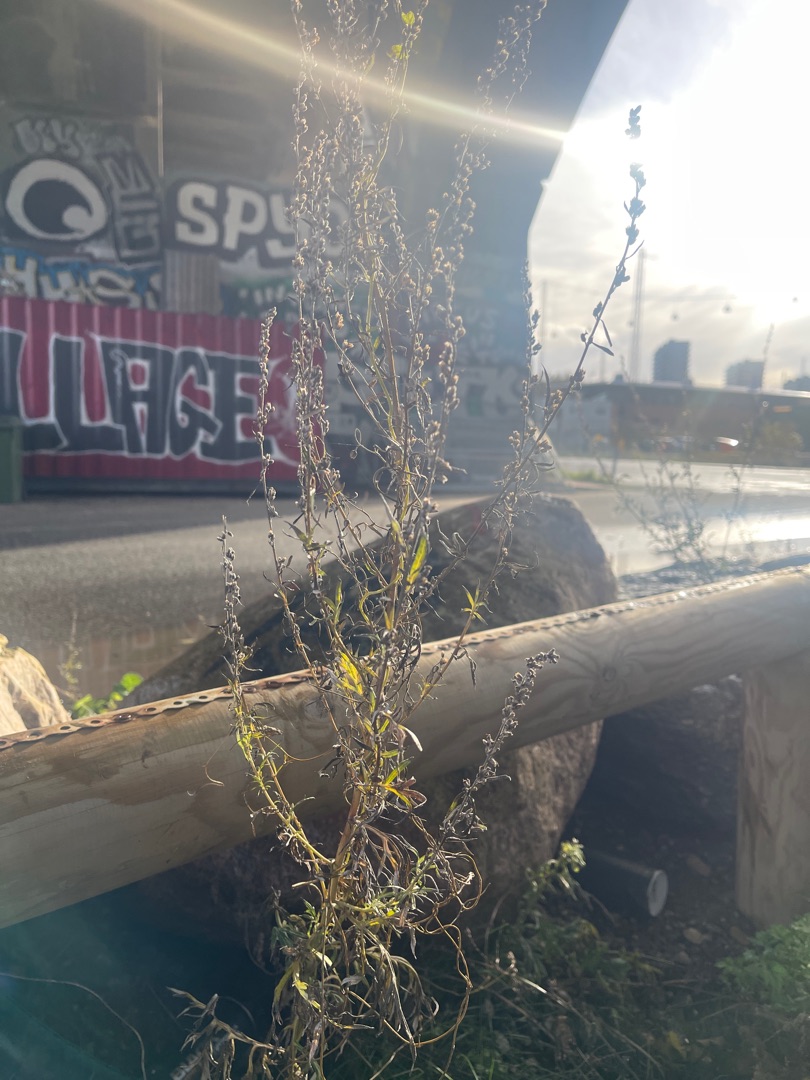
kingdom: Plantae
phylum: Tracheophyta
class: Magnoliopsida
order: Asterales
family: Asteraceae
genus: Artemisia
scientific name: Artemisia vulgaris
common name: Grå-bynke
